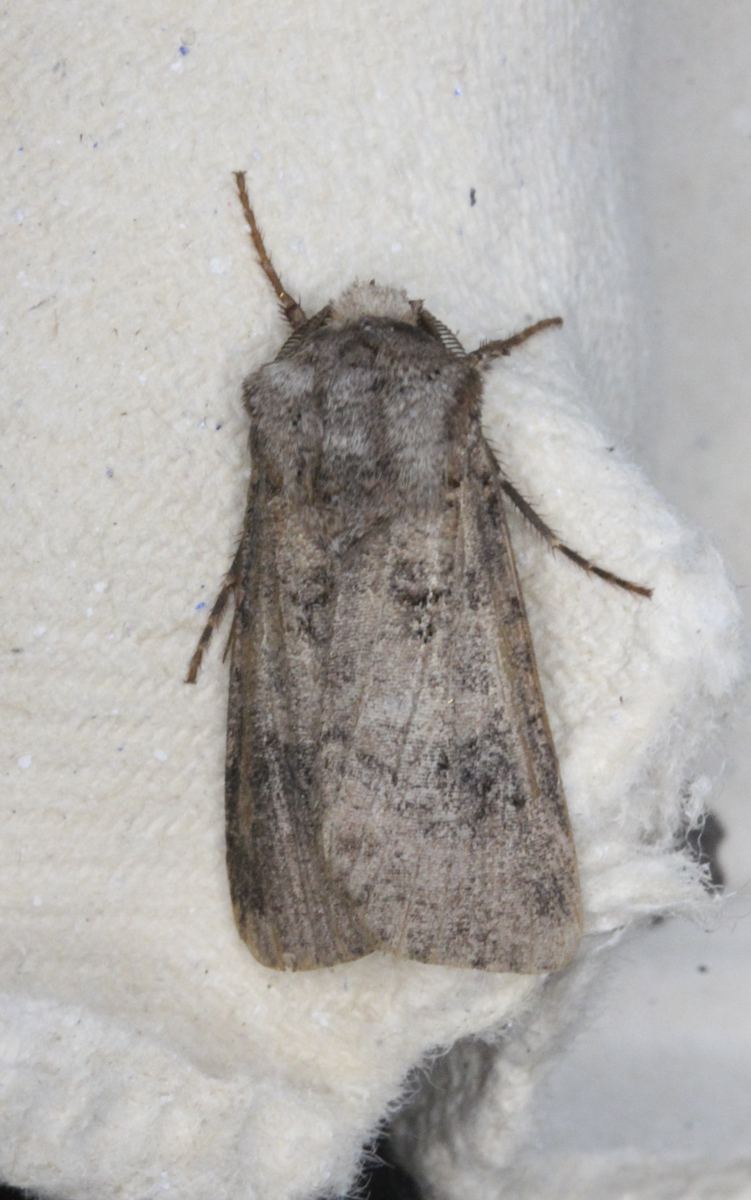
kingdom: Animalia
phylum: Arthropoda
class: Insecta
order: Lepidoptera
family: Noctuidae
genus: Agrotis
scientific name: Agrotis clavis
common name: Heart and club
